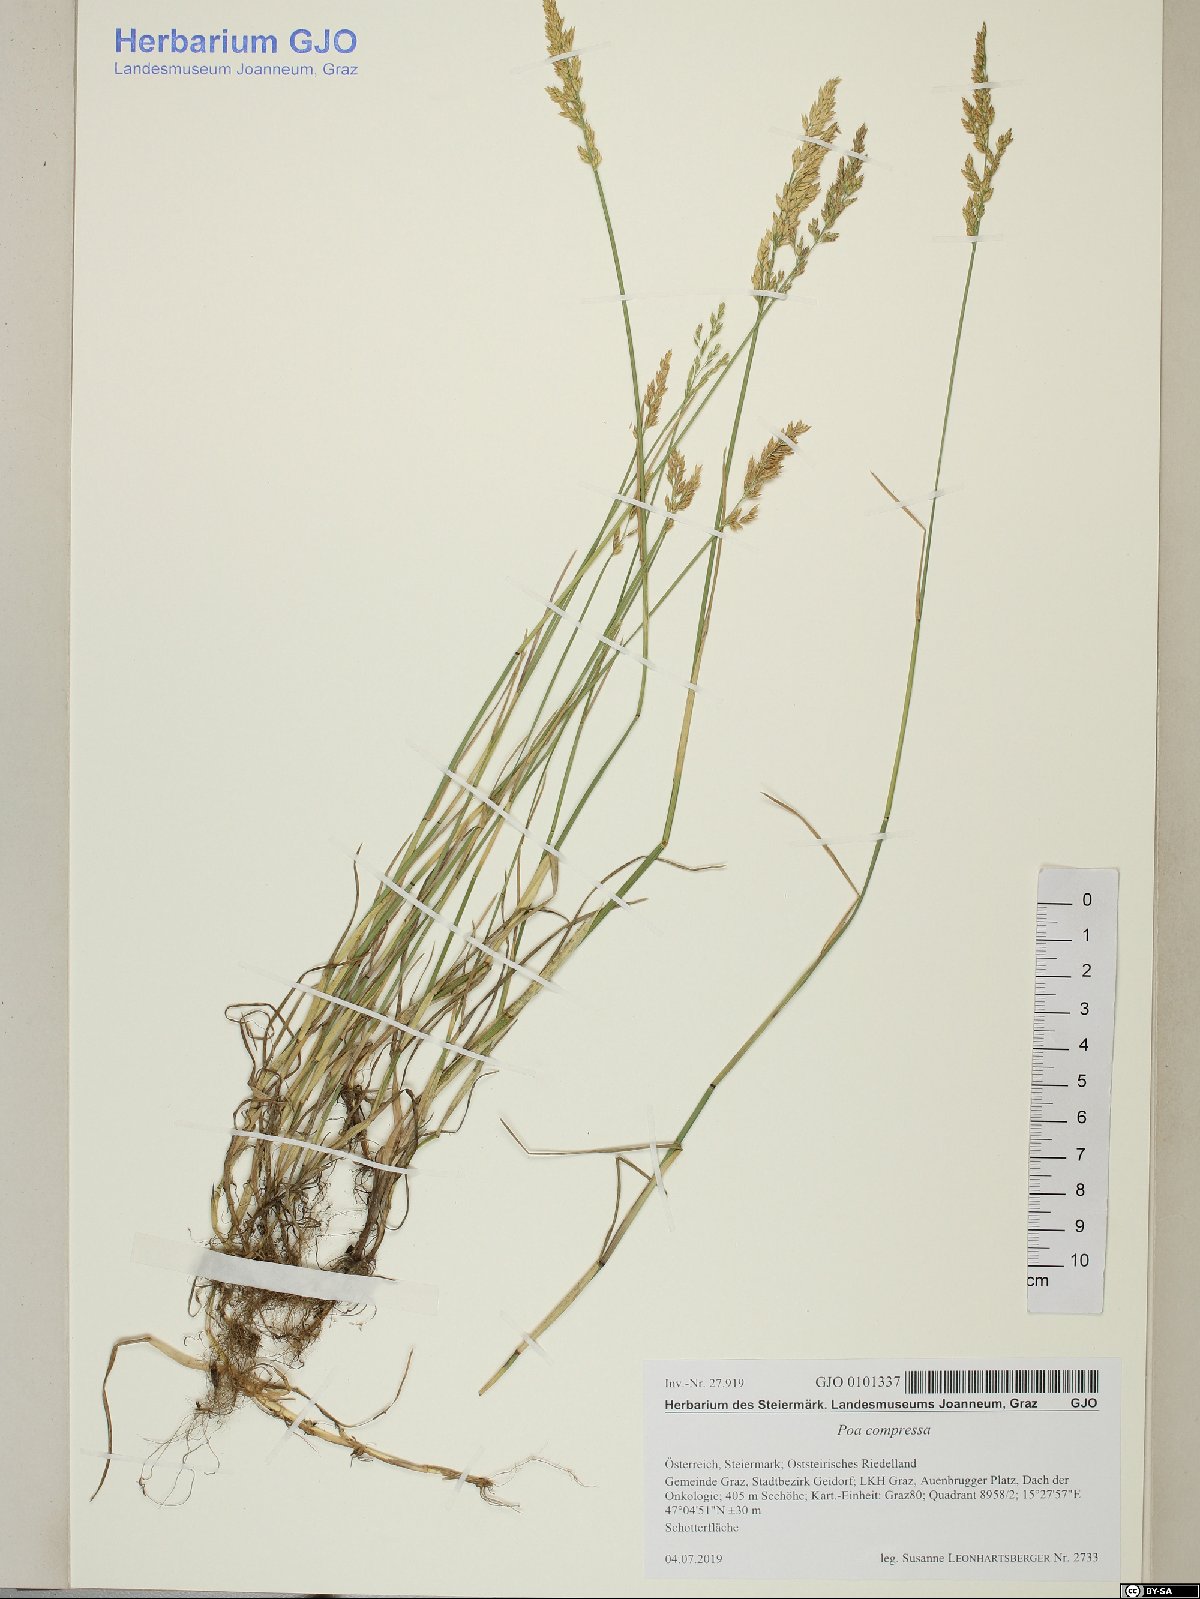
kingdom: Plantae
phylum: Tracheophyta
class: Liliopsida
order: Poales
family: Poaceae
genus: Poa
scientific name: Poa compressa
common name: Canada bluegrass
